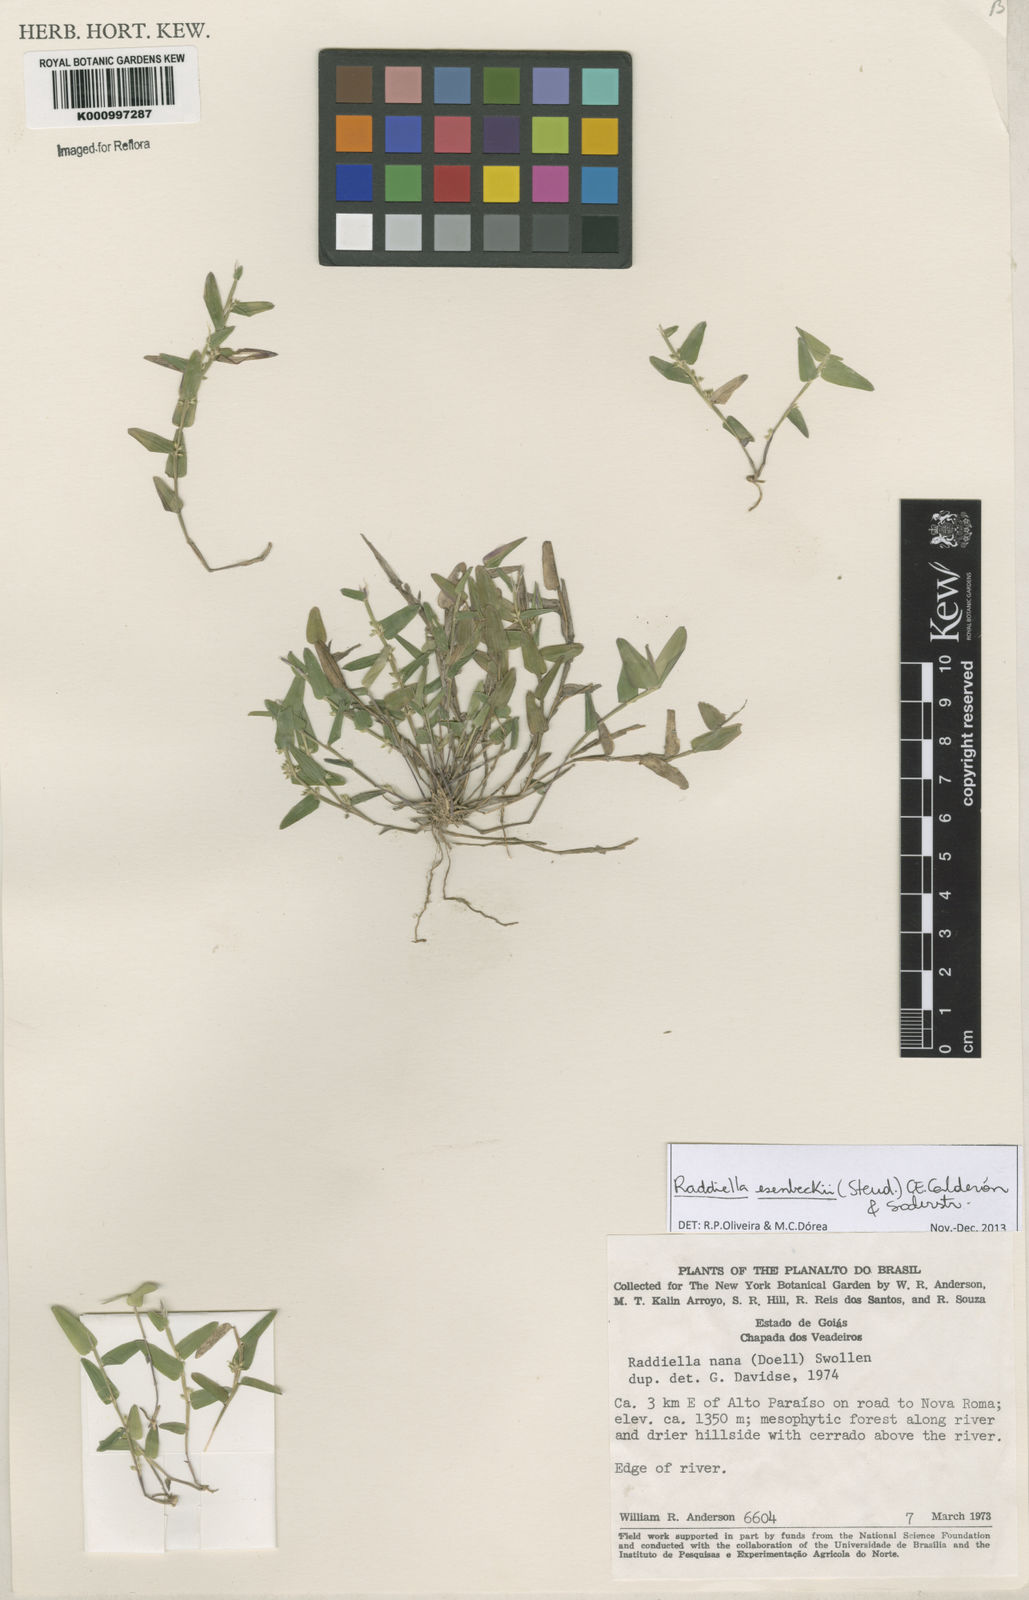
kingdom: Plantae
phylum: Tracheophyta
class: Liliopsida
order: Poales
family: Poaceae
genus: Raddiella
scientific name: Raddiella
